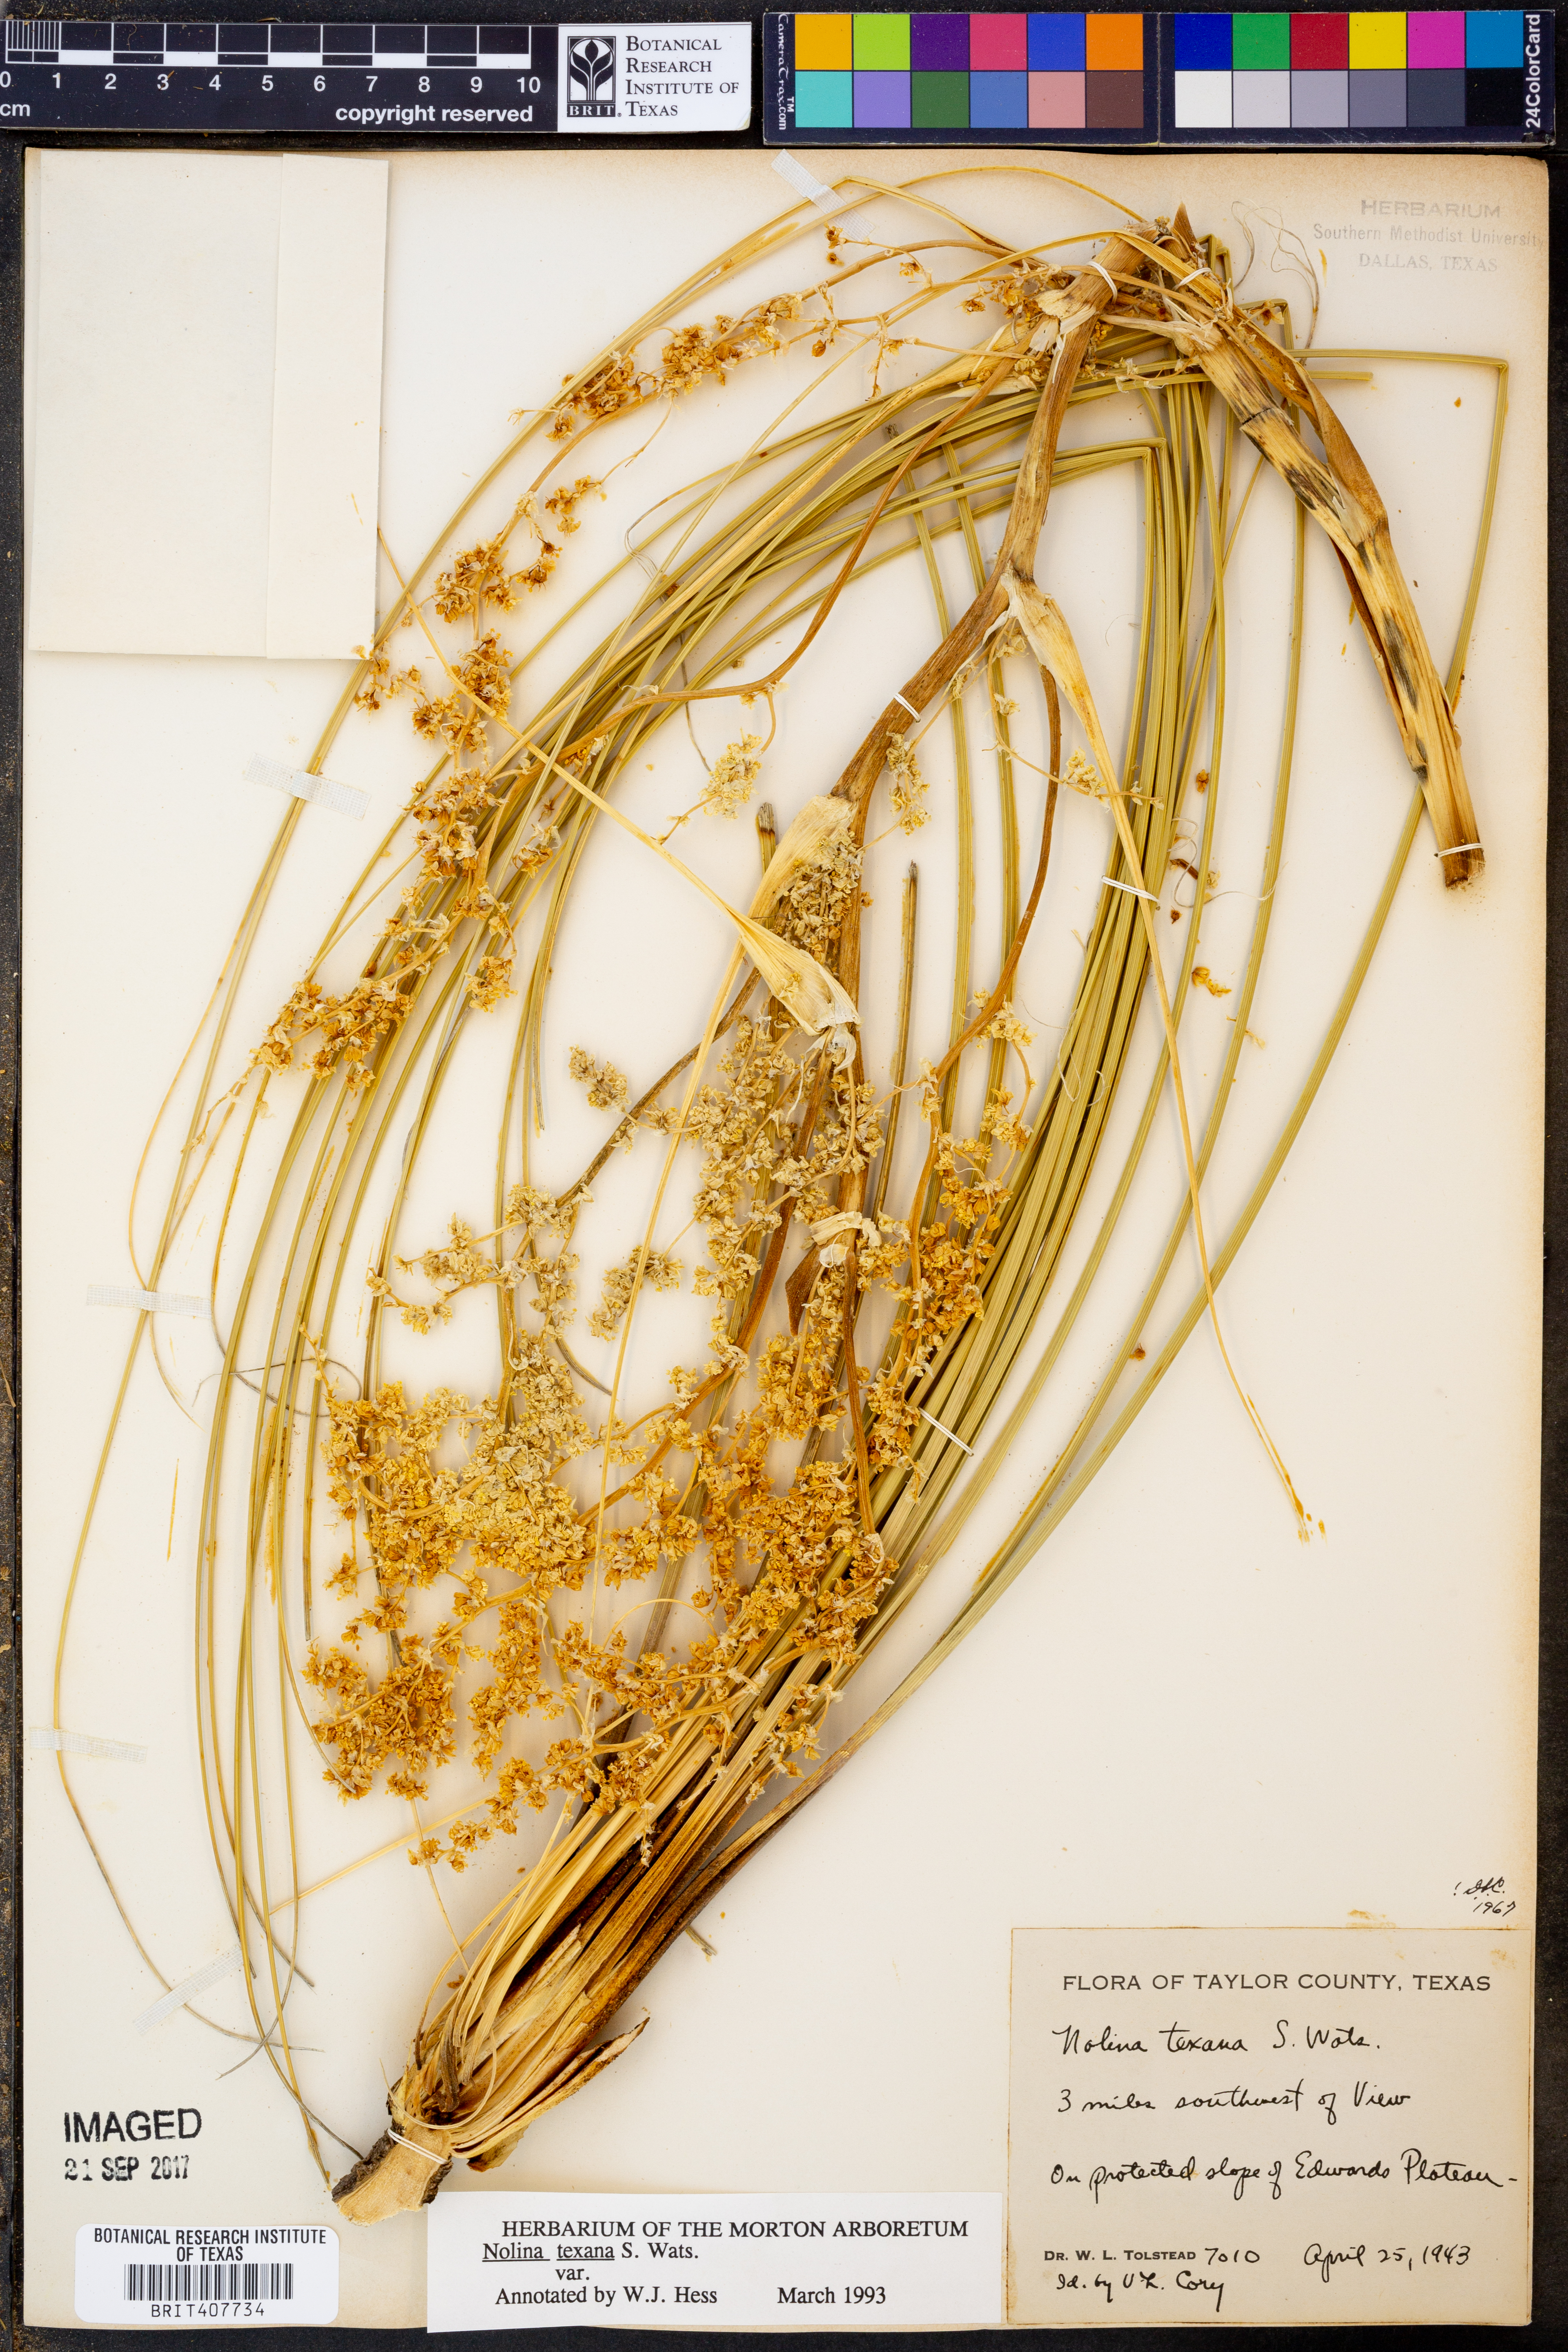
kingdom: Plantae
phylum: Tracheophyta
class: Liliopsida
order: Asparagales
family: Asparagaceae
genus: Nolina
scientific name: Nolina texana
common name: Texas sacahuiste
